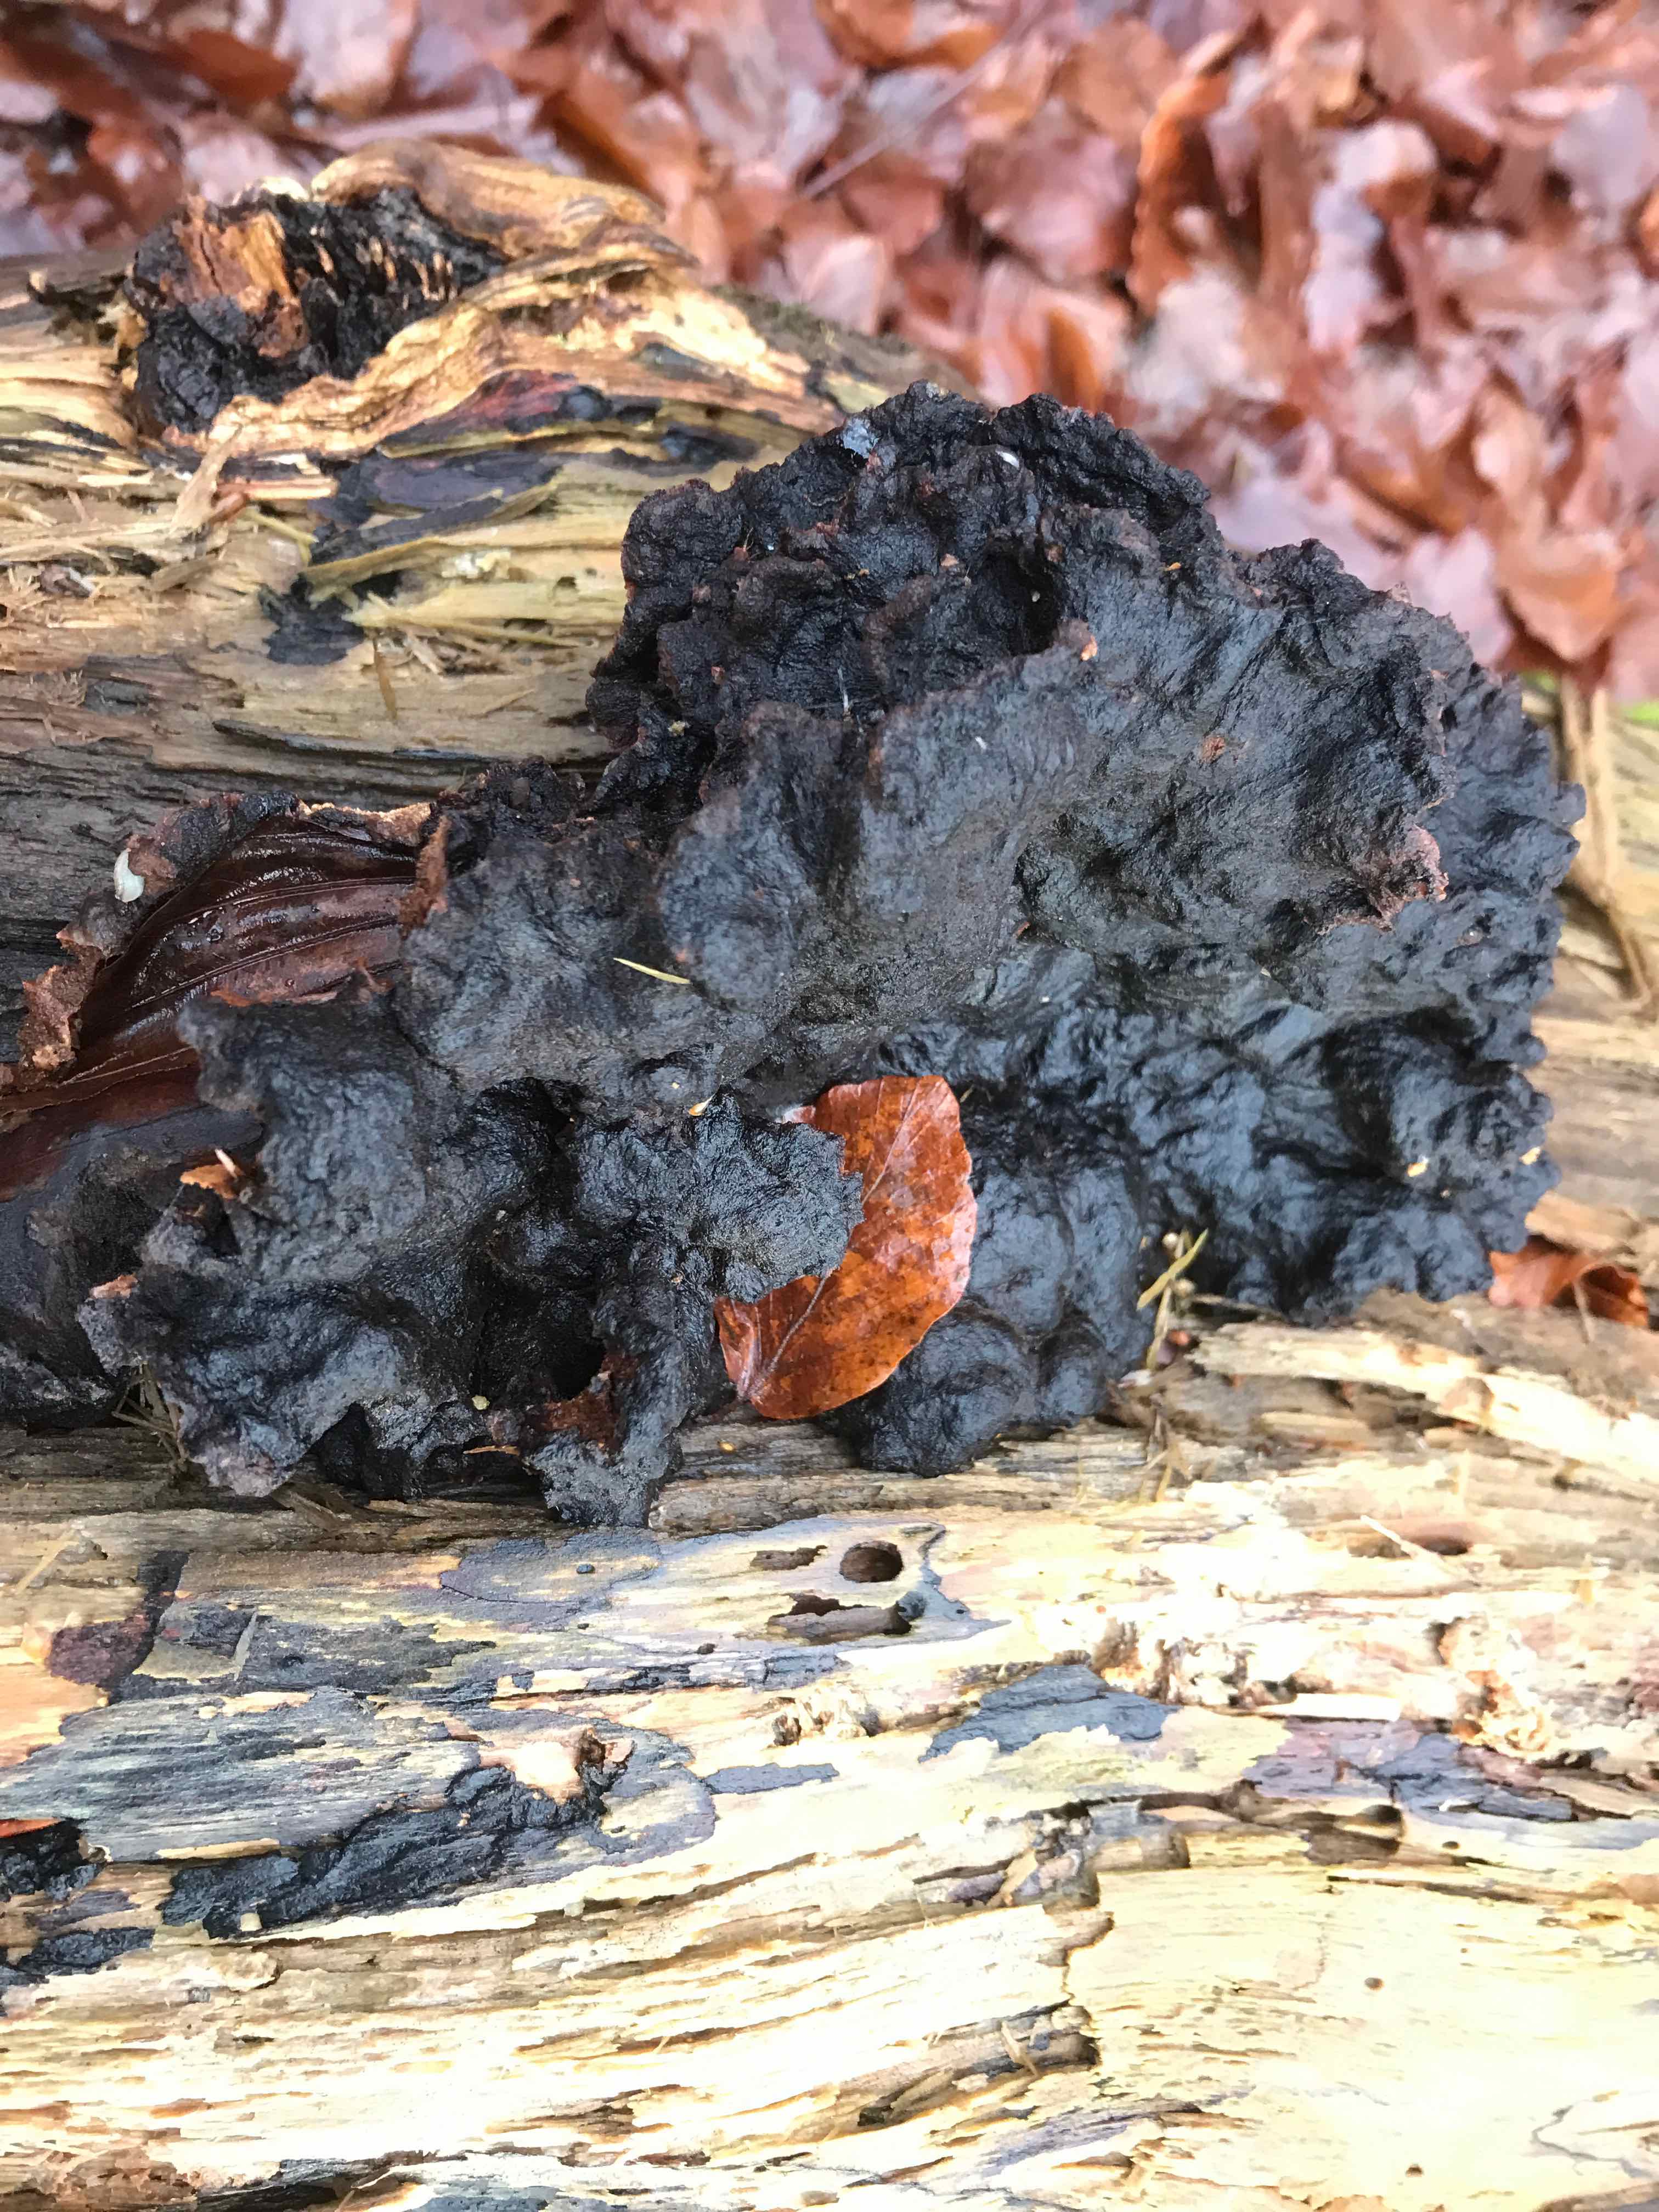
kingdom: Fungi
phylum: Basidiomycota
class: Agaricomycetes
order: Polyporales
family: Ischnodermataceae
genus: Ischnoderma
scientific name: Ischnoderma benzoinum
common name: gran-tjæreporesvamp
